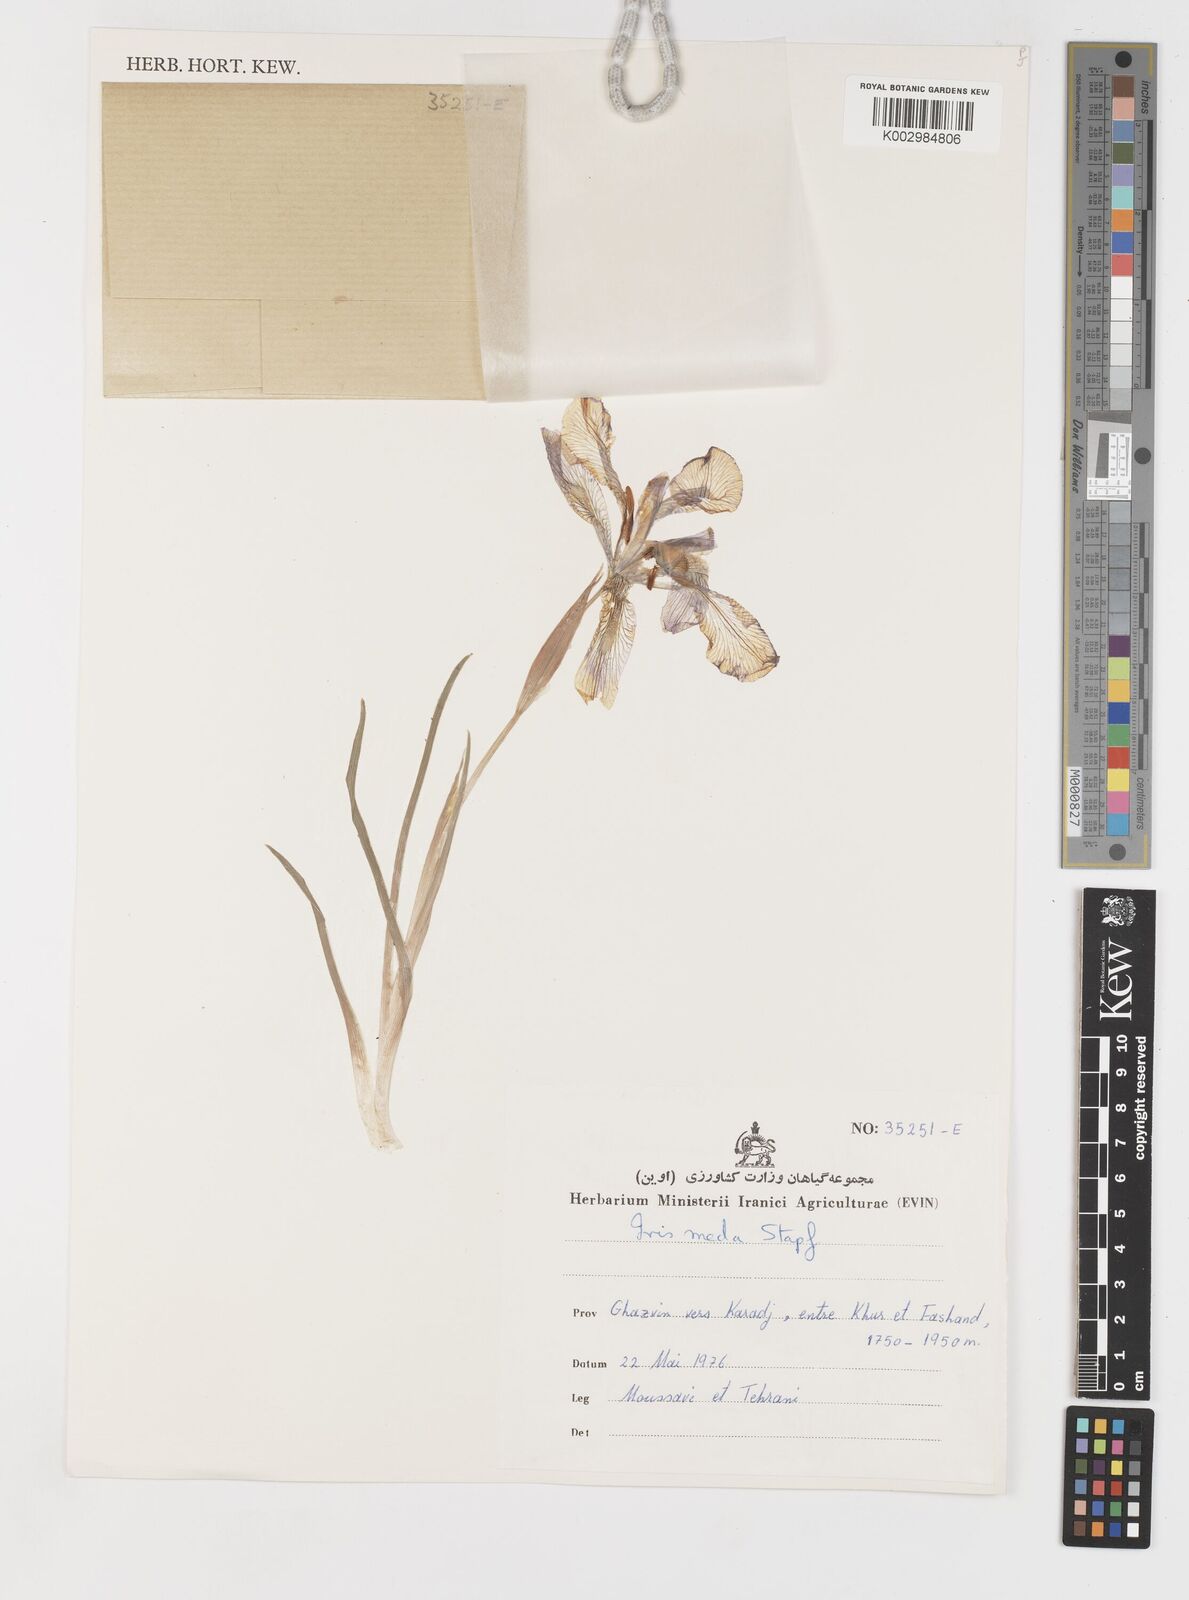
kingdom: Plantae
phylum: Tracheophyta
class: Liliopsida
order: Asparagales
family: Iridaceae
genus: Iris
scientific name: Iris meda
